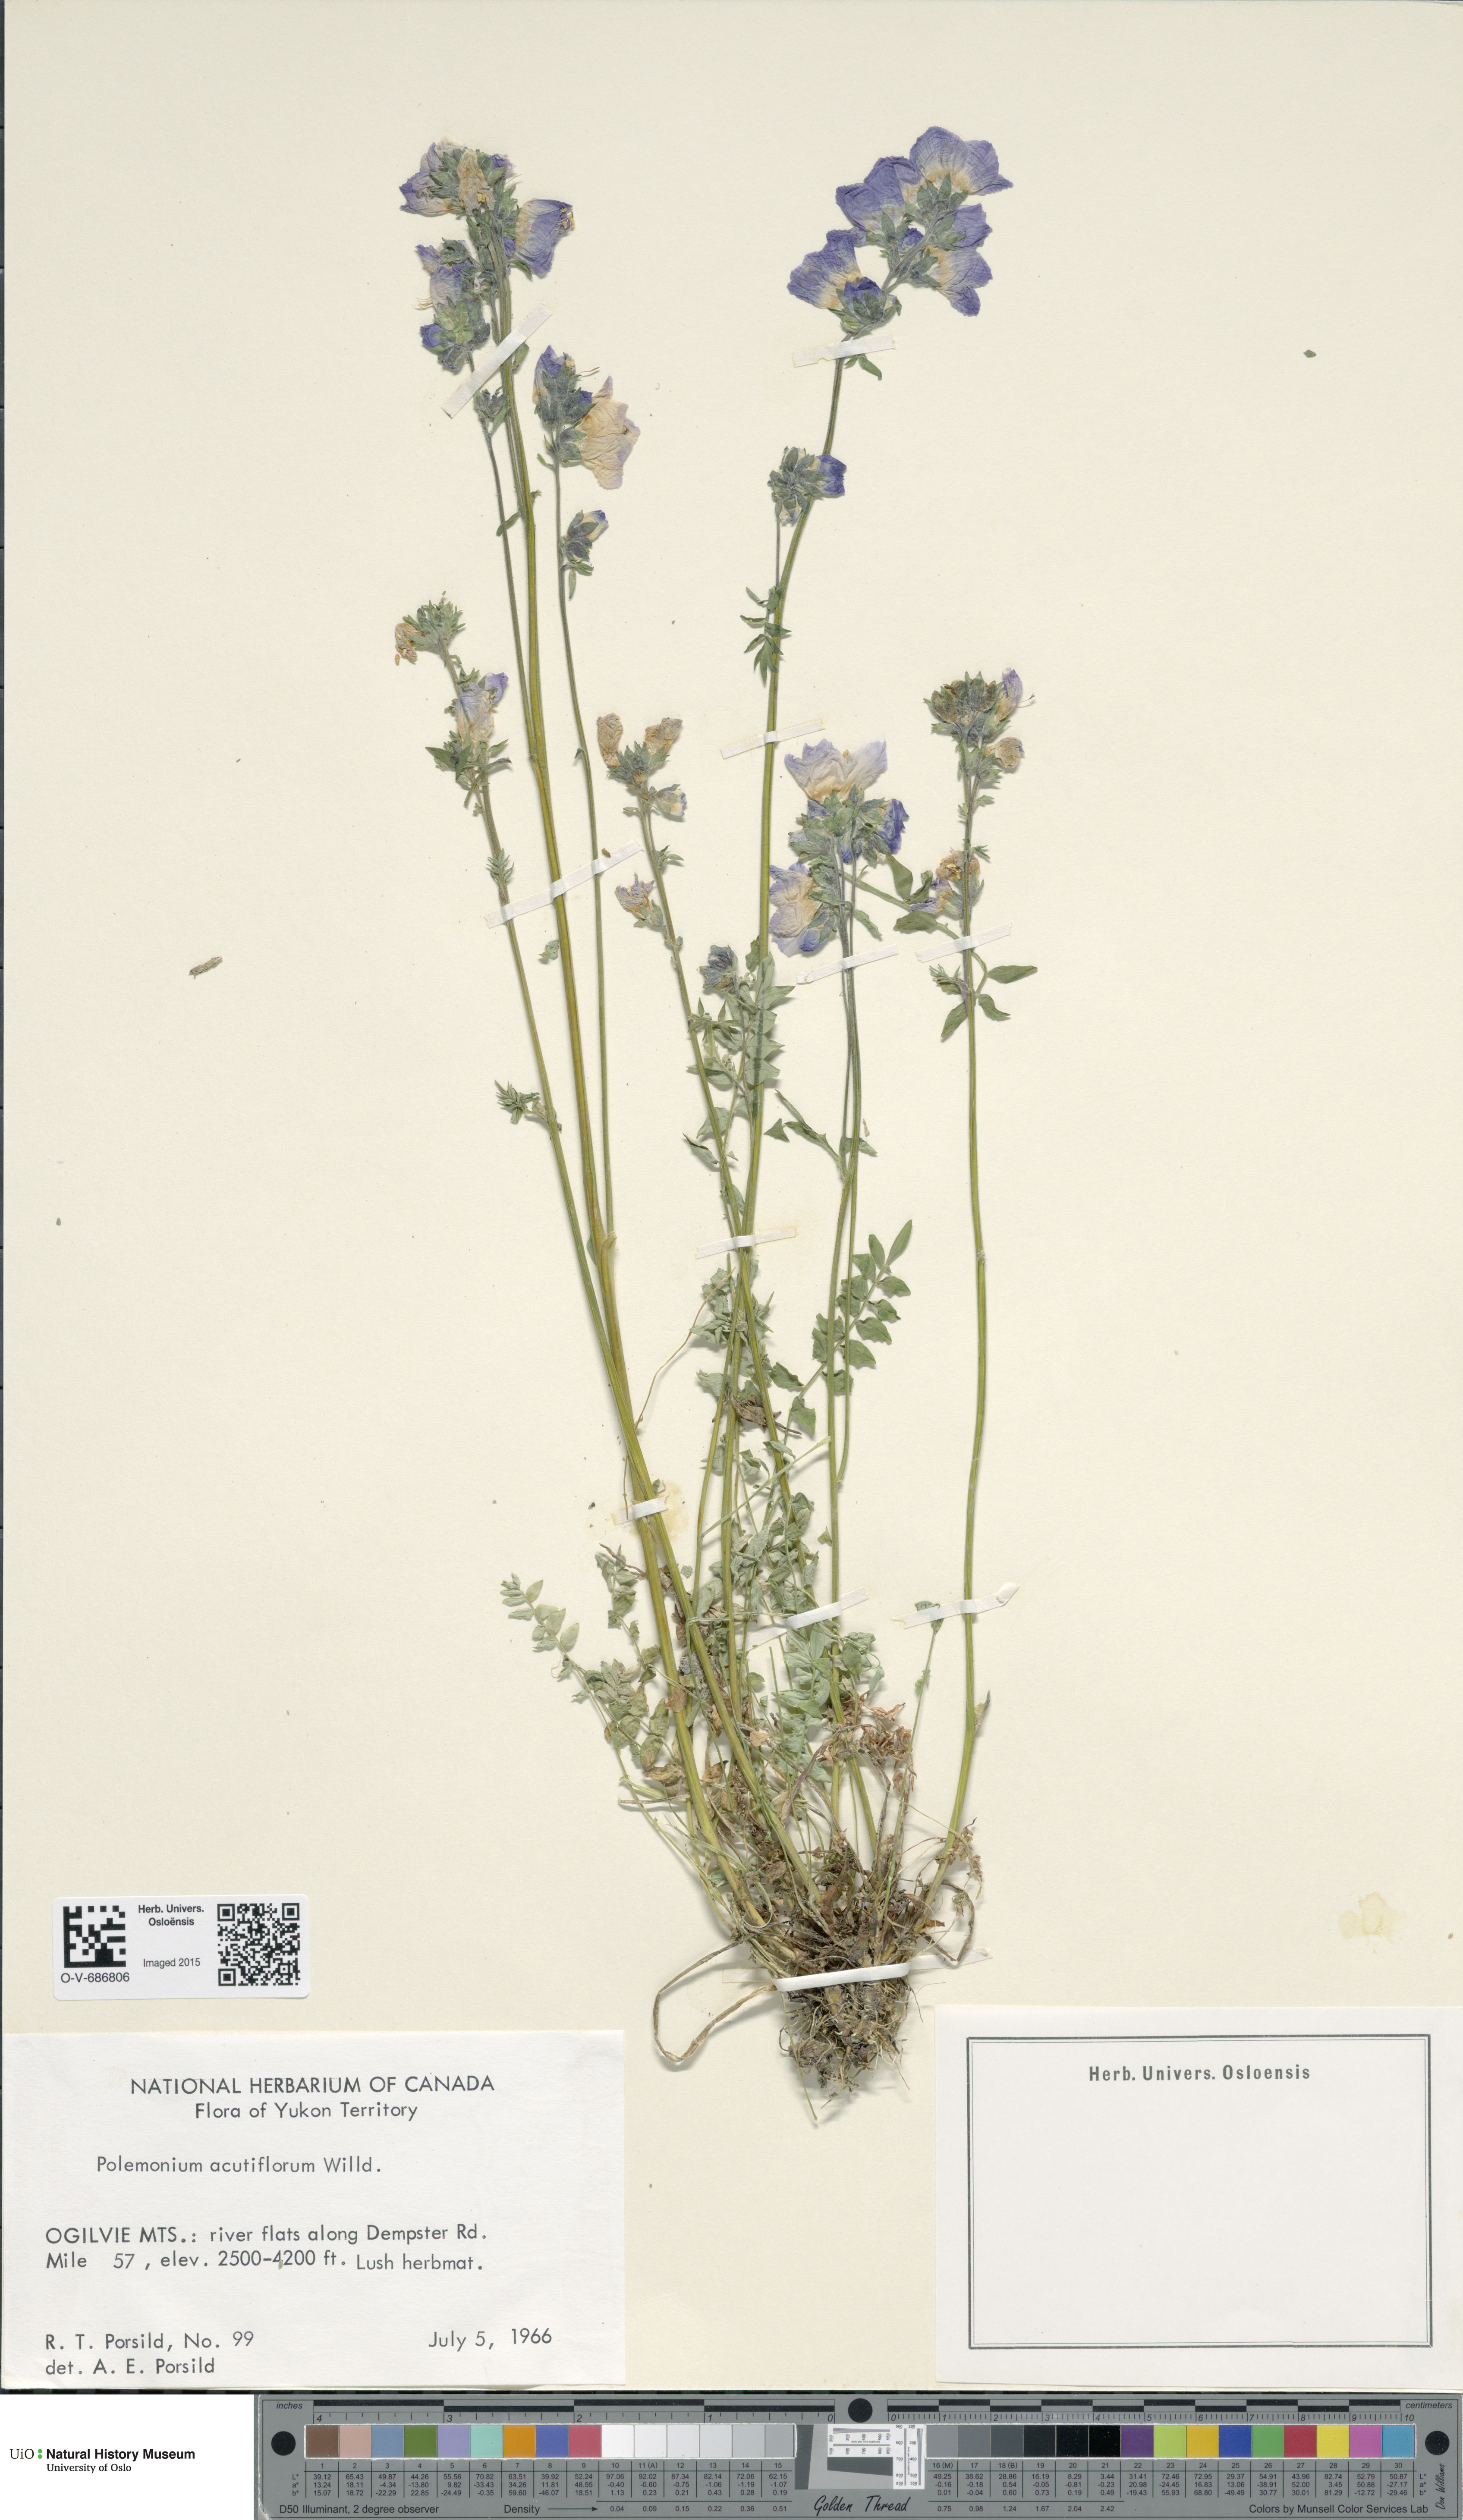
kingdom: Plantae
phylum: Tracheophyta
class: Magnoliopsida
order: Ericales
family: Polemoniaceae
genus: Polemonium
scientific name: Polemonium villosum
